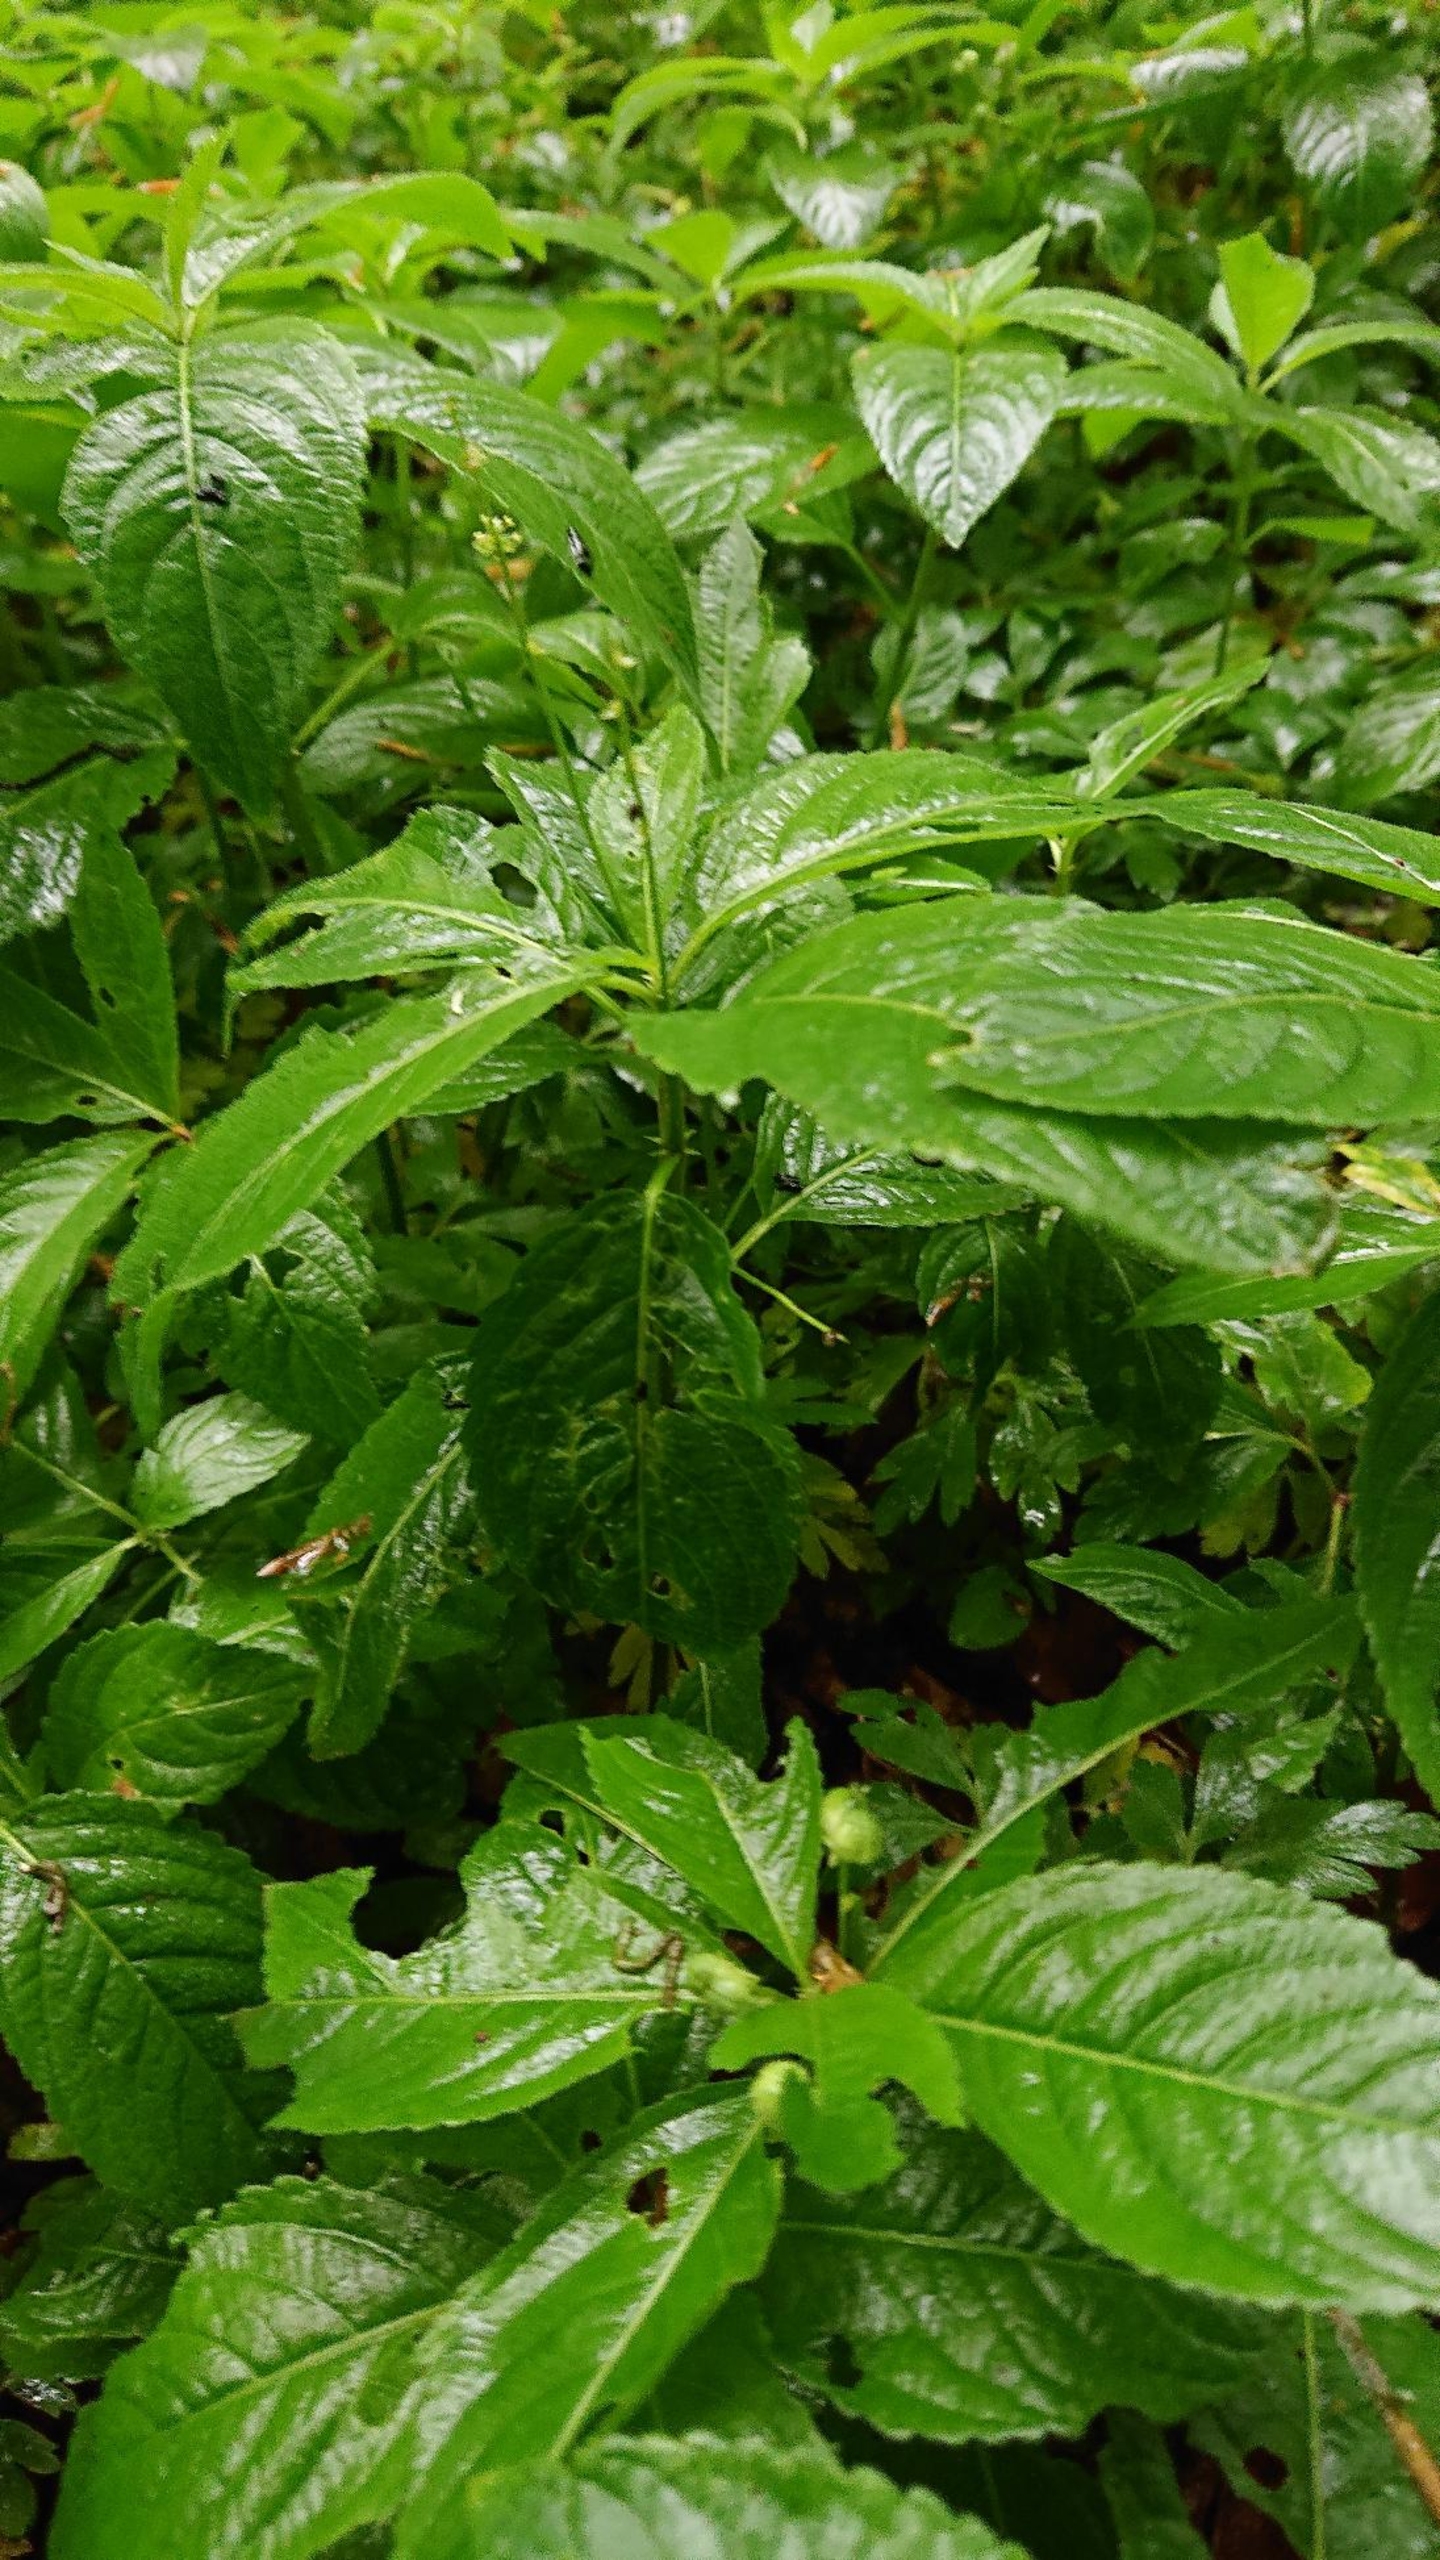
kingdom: Plantae
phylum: Tracheophyta
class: Magnoliopsida
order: Malpighiales
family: Euphorbiaceae
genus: Mercurialis
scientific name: Mercurialis perennis
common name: Almindelig bingelurt
